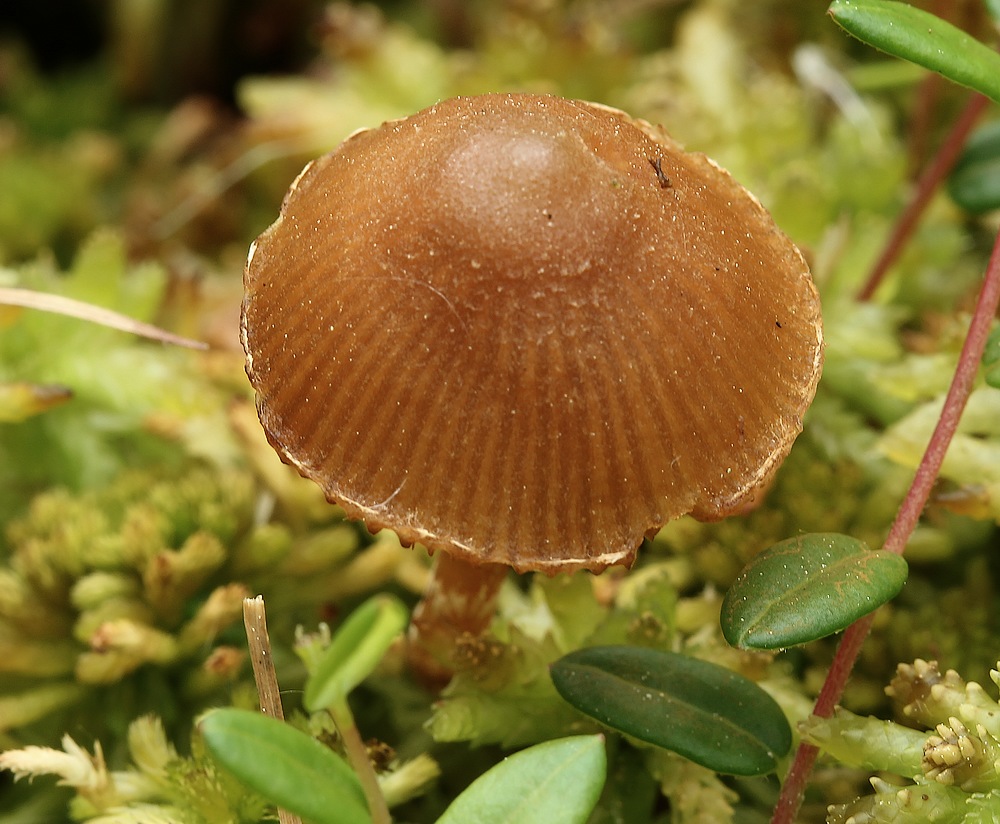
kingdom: Fungi
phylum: Basidiomycota
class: Agaricomycetes
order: Agaricales
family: Hymenogastraceae
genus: Galerina
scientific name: Galerina paludosa
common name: mose-hjelmhat
